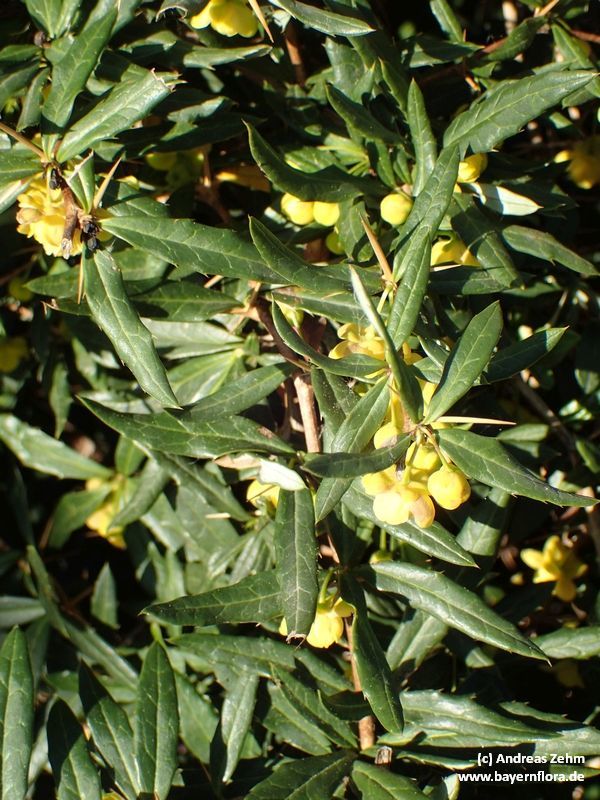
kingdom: Plantae
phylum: Tracheophyta
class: Magnoliopsida
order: Ranunculales
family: Berberidaceae
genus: Berberis
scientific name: Berberis candidula
